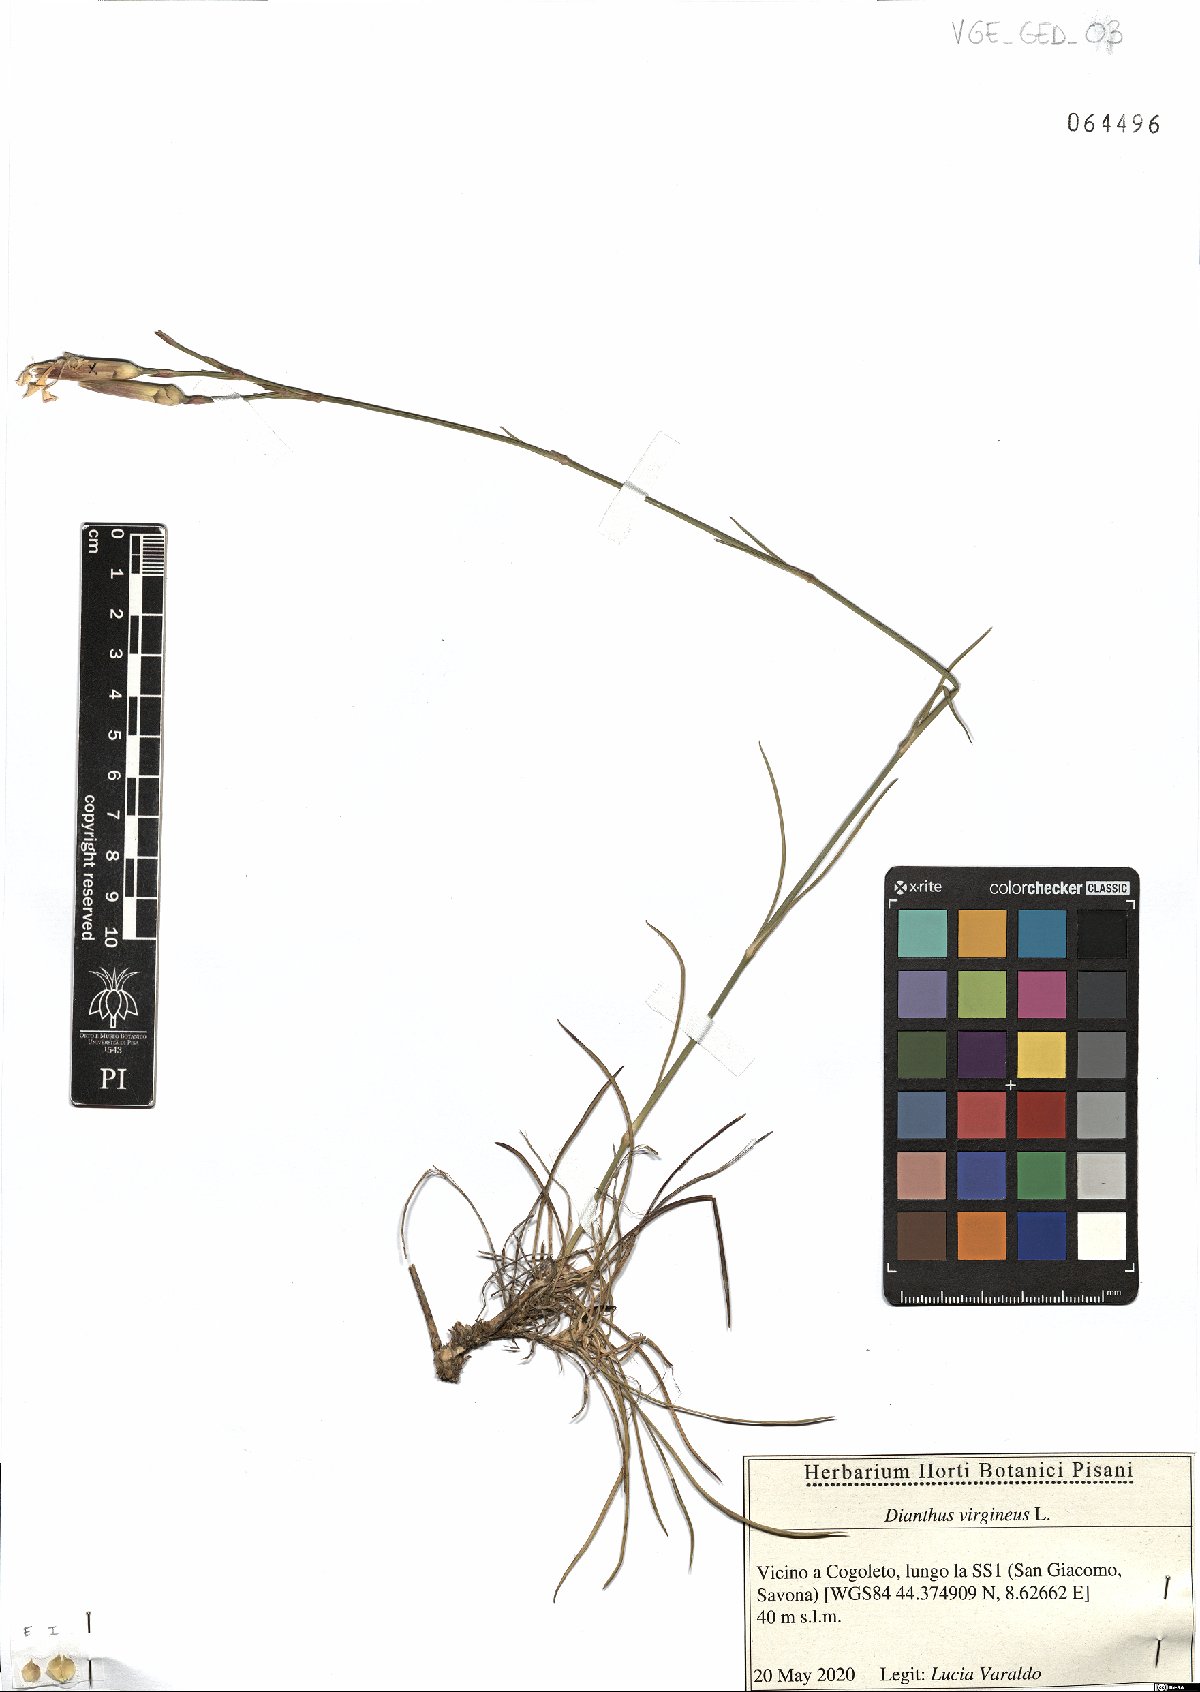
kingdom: Plantae
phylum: Tracheophyta
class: Magnoliopsida
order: Caryophyllales
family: Caryophyllaceae
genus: Dianthus
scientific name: Dianthus virgineus
